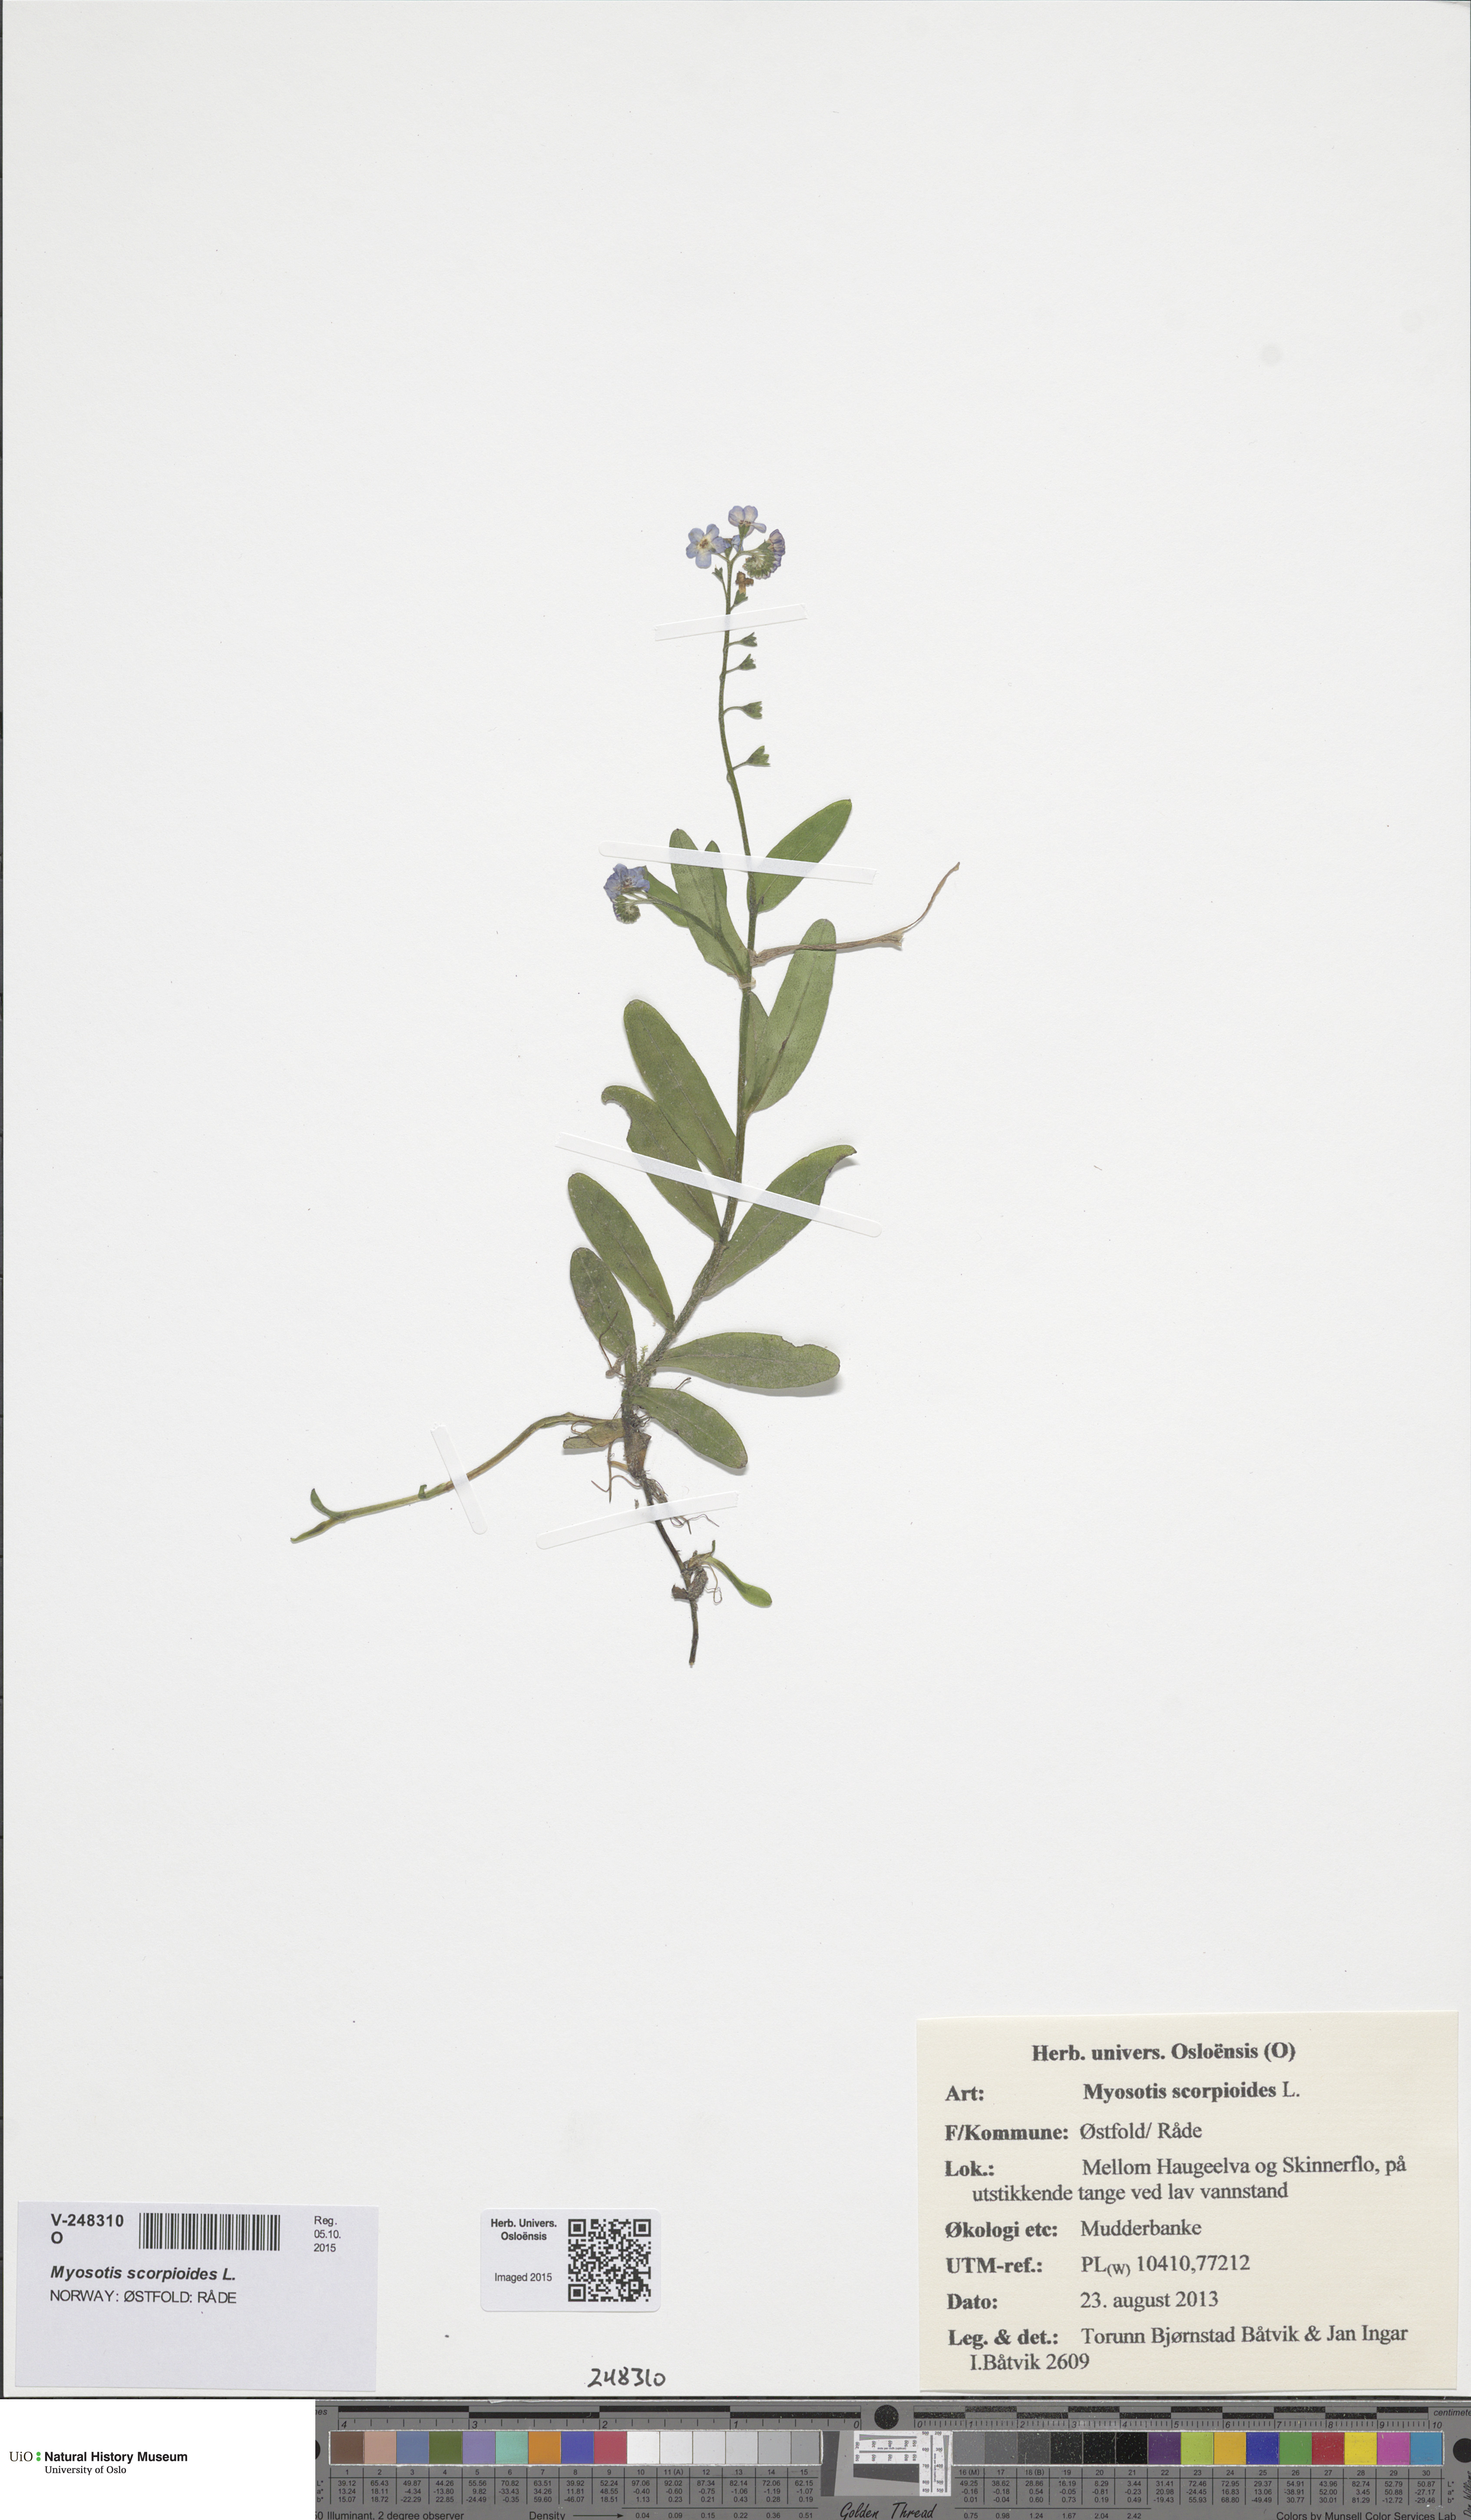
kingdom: Plantae
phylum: Tracheophyta
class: Magnoliopsida
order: Boraginales
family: Boraginaceae
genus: Myosotis
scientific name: Myosotis scorpioides
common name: Water forget-me-not
